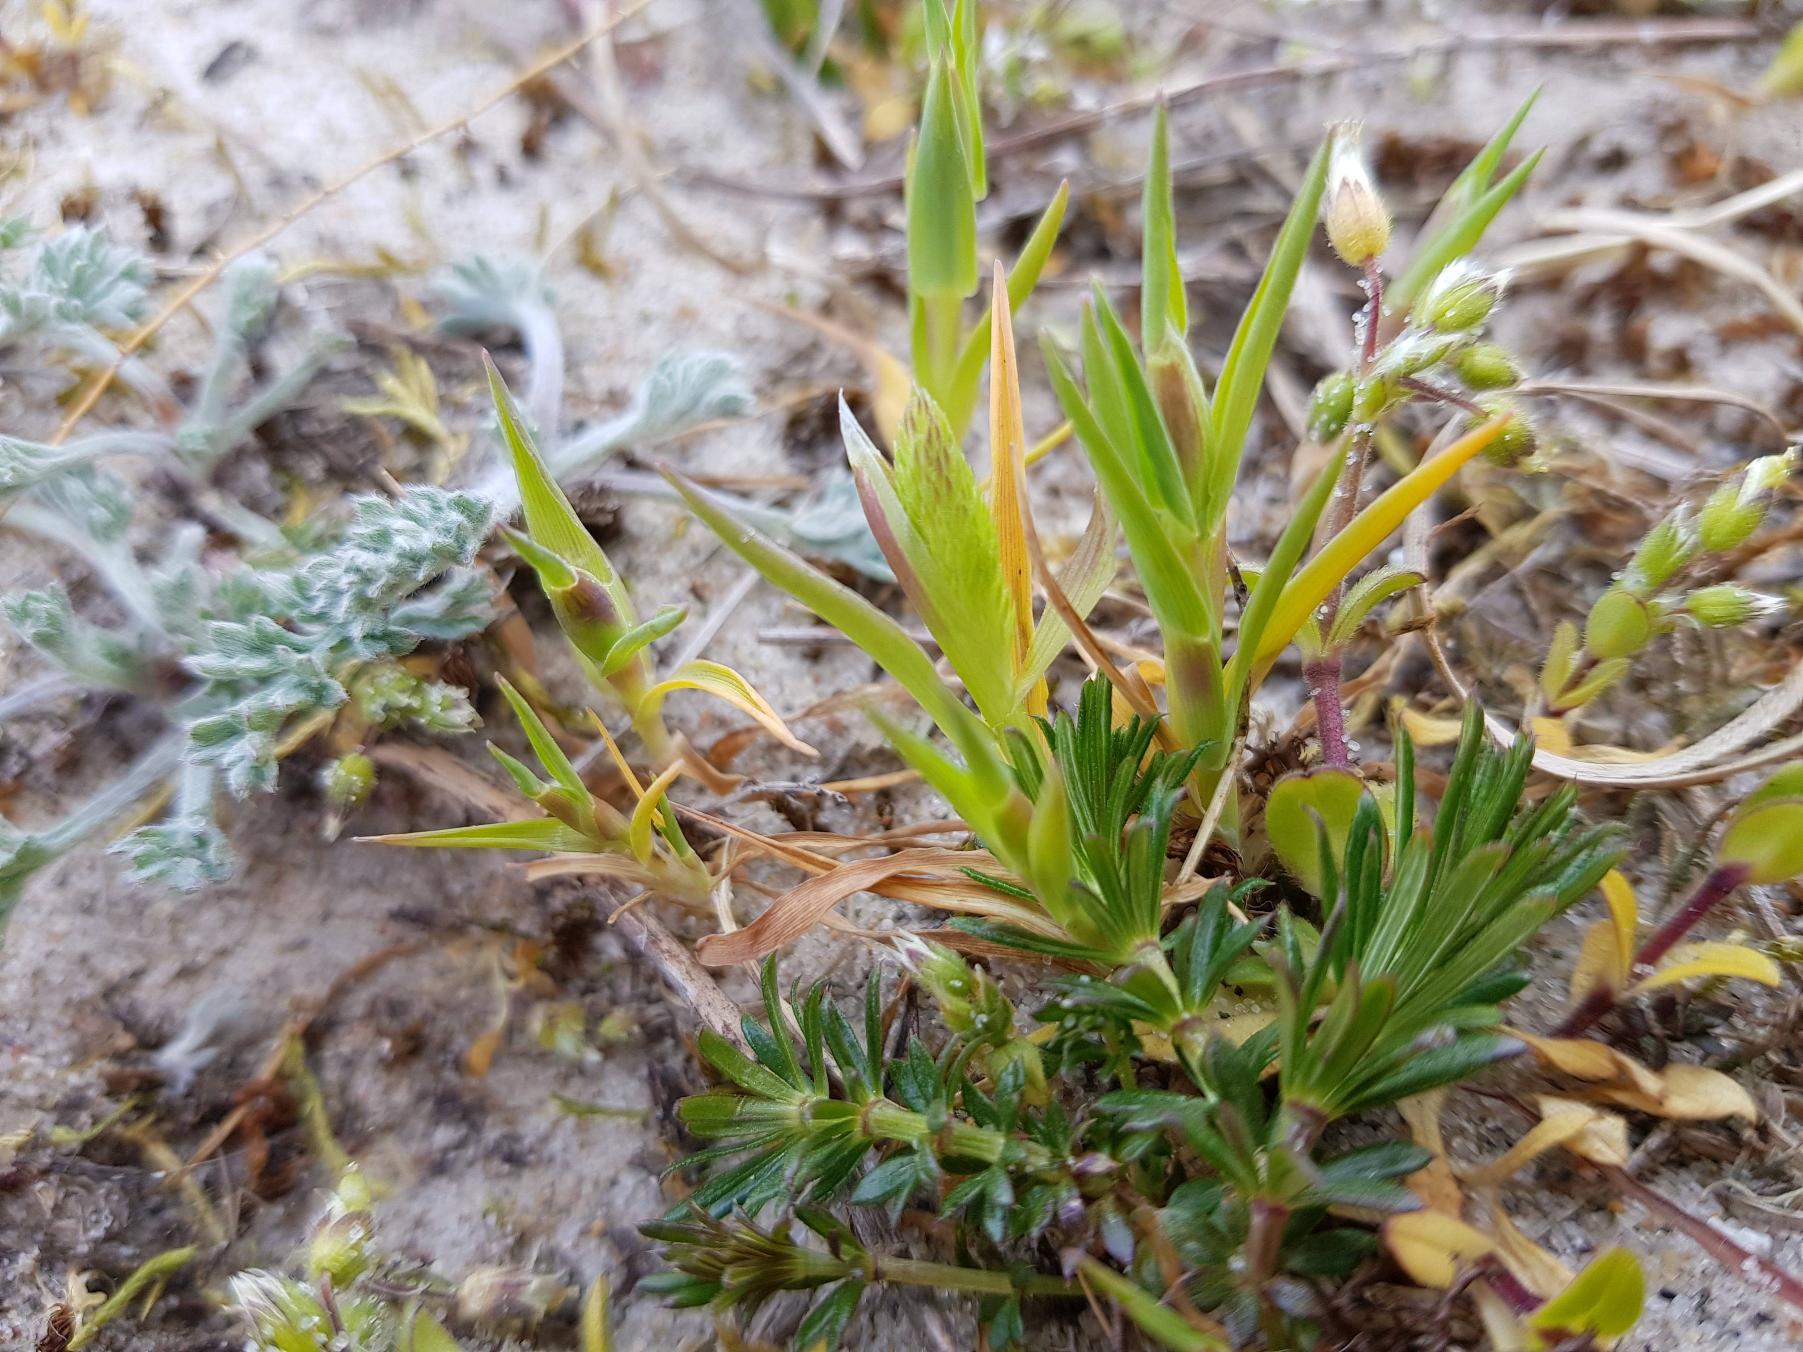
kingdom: Plantae
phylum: Tracheophyta
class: Liliopsida
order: Poales
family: Poaceae
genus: Phleum
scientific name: Phleum arenarium
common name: Sand-rottehale
